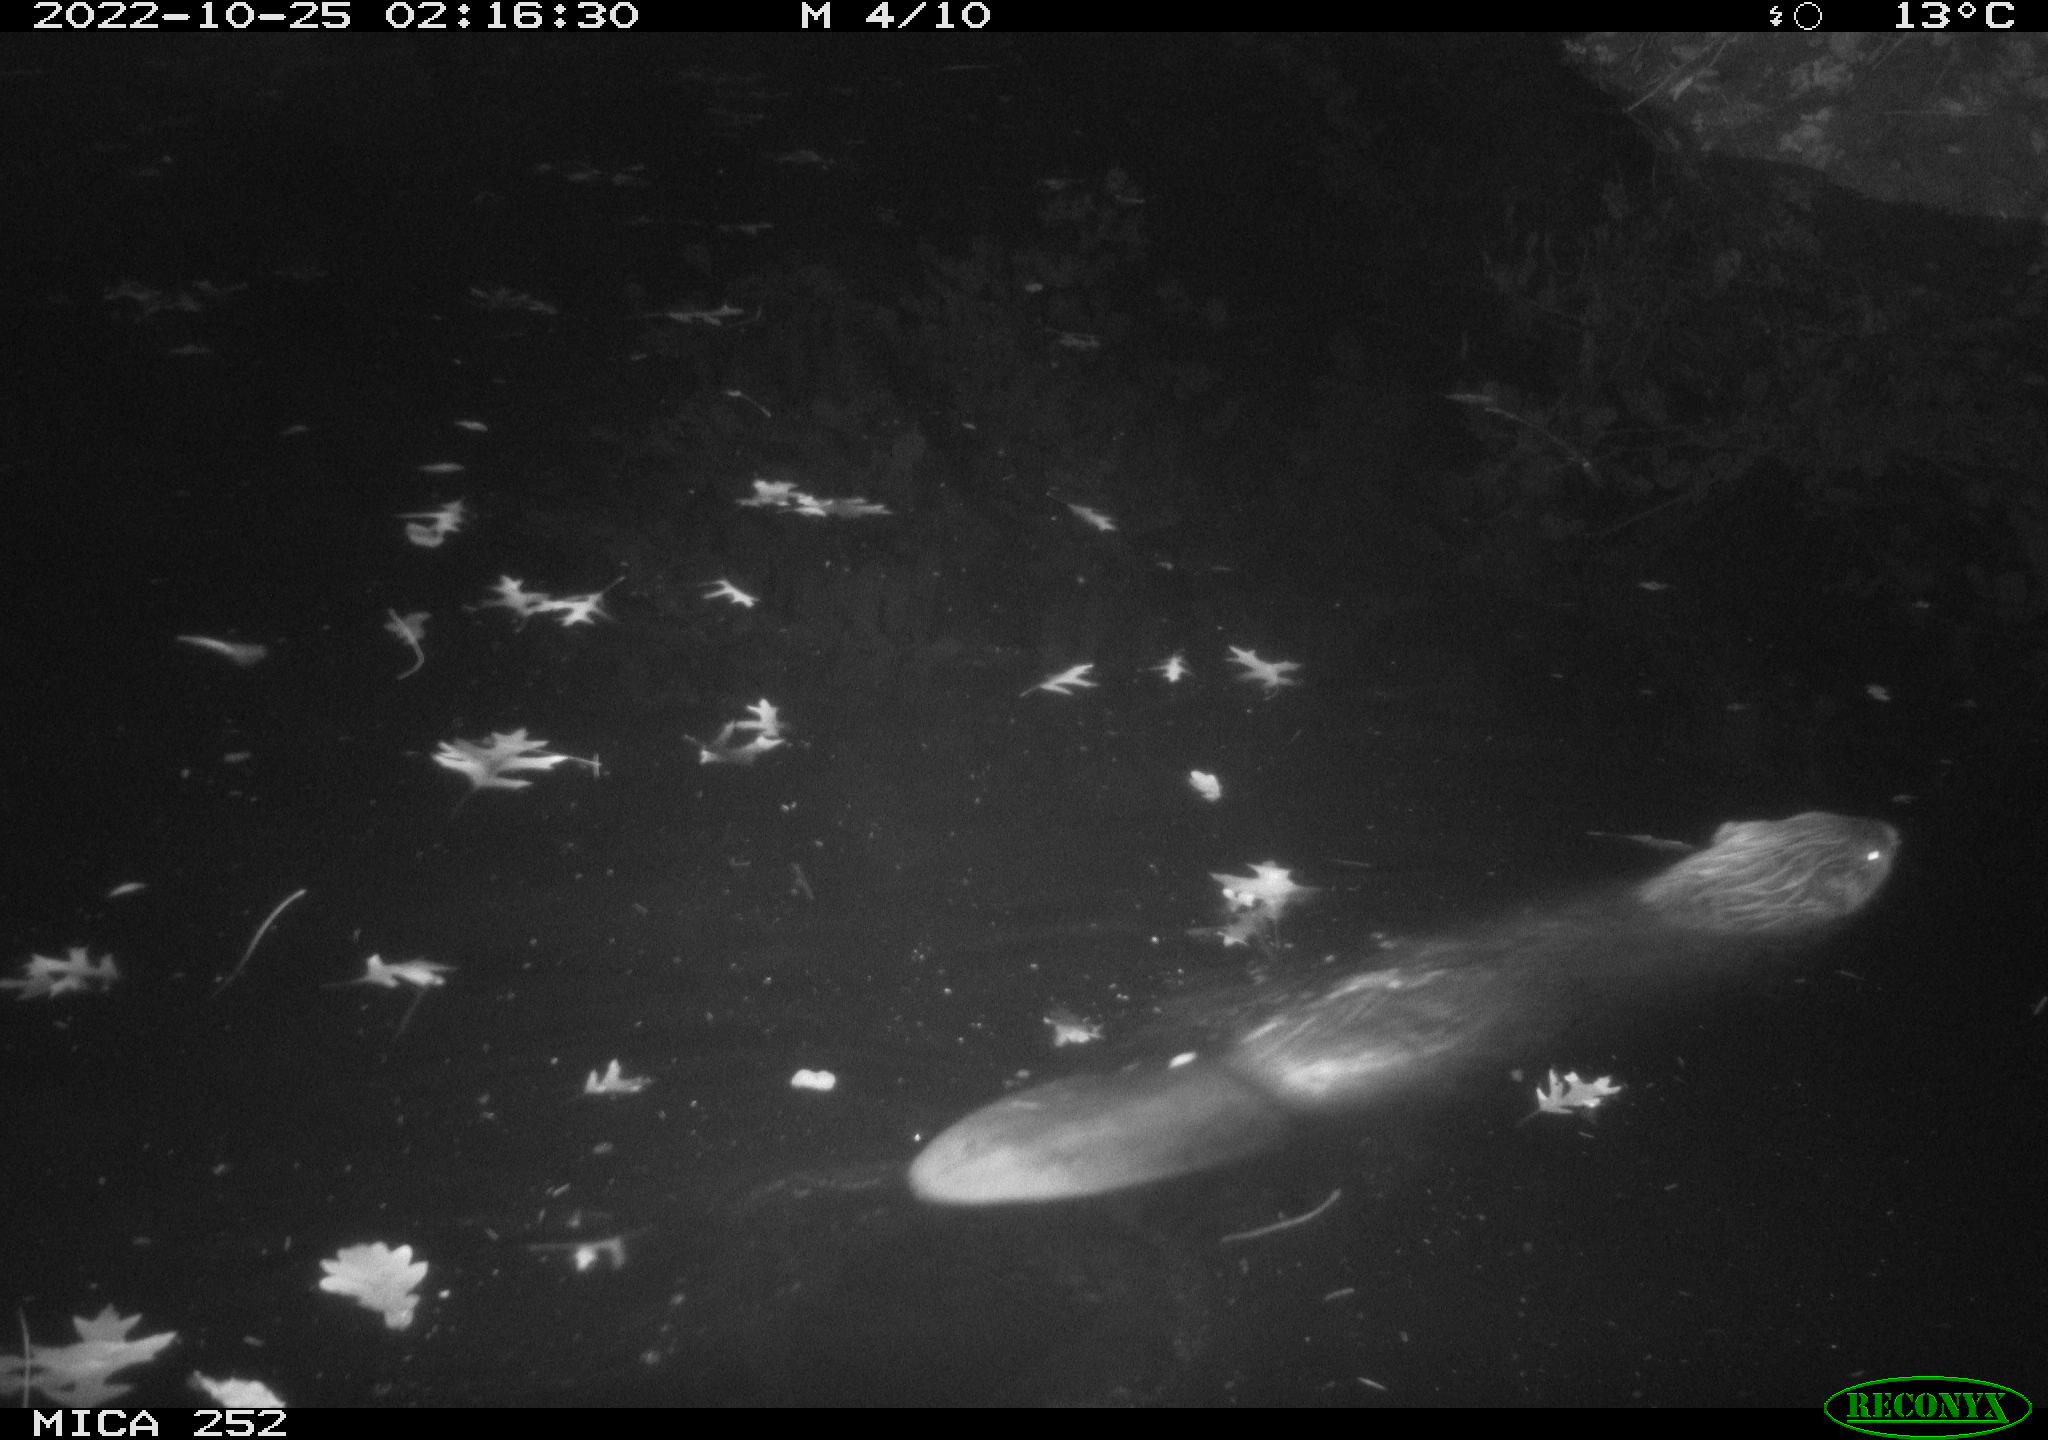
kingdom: Animalia
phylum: Chordata
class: Mammalia
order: Rodentia
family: Castoridae
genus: Castor
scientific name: Castor fiber
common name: Eurasian beaver
